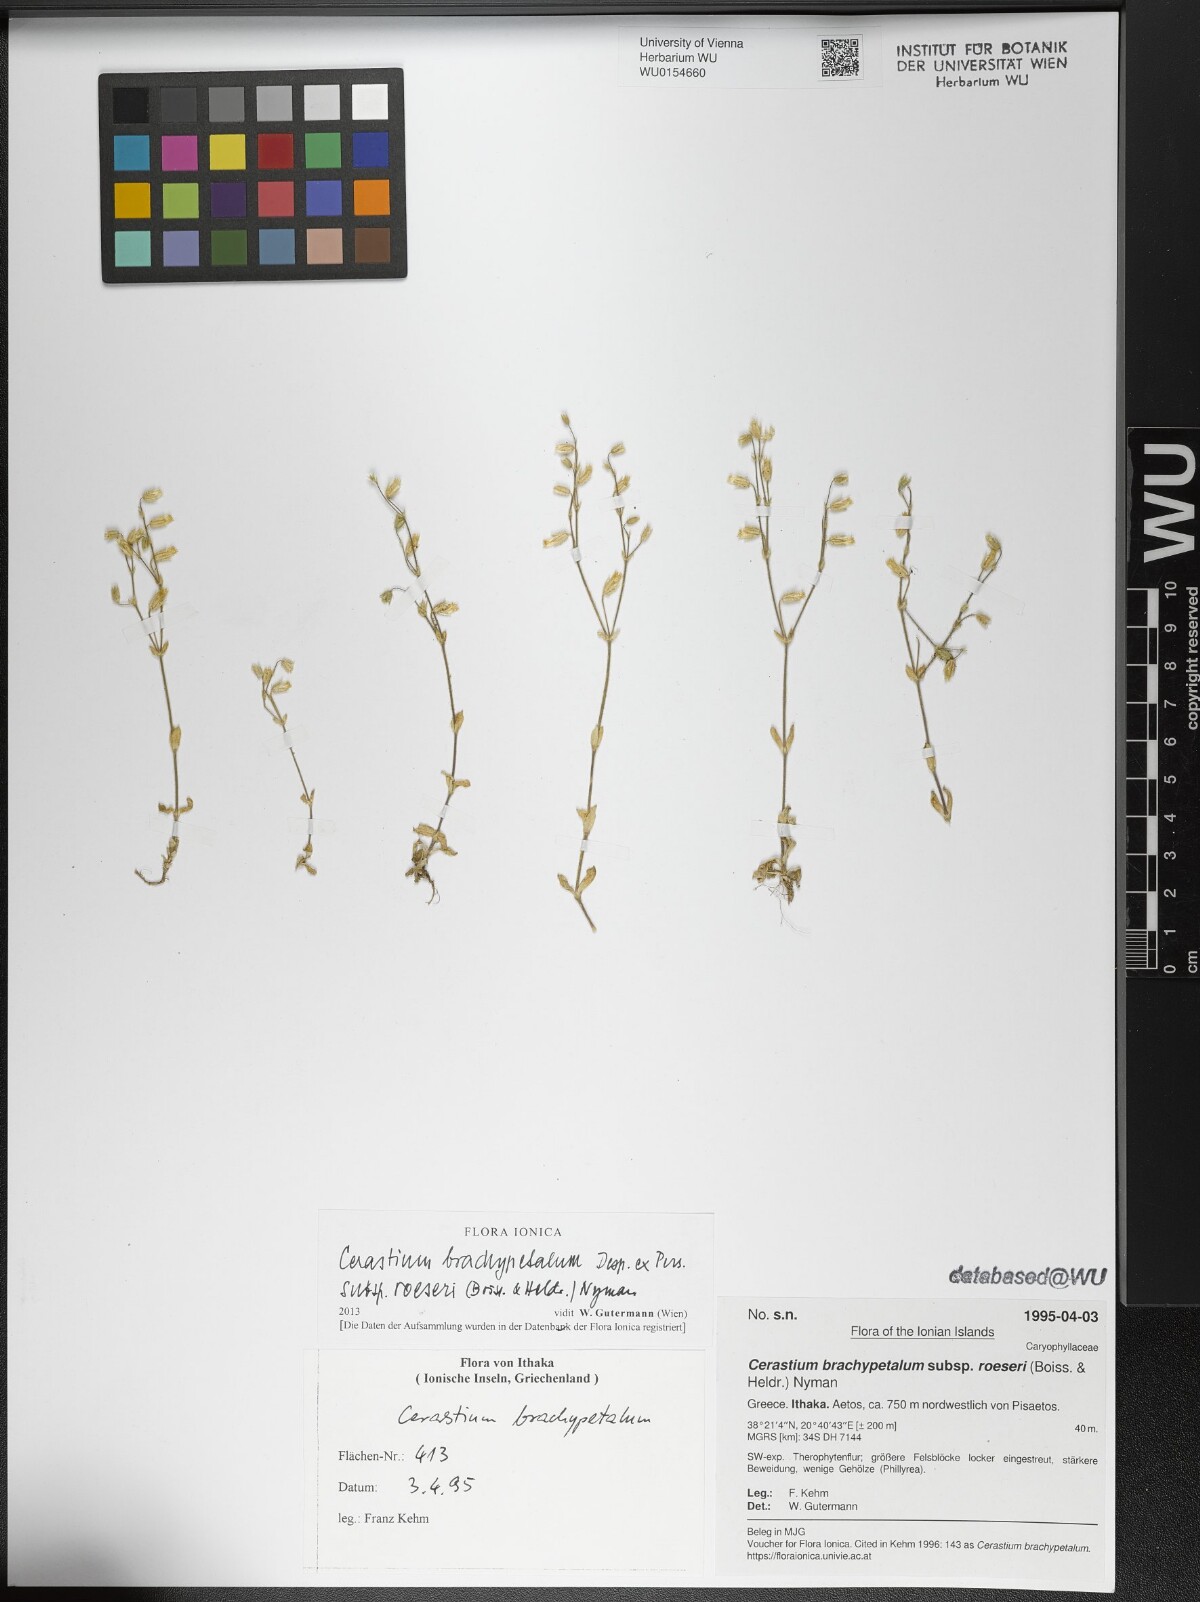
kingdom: Plantae
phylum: Tracheophyta
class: Magnoliopsida
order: Caryophyllales
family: Caryophyllaceae
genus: Cerastium
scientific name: Cerastium brachypetalum
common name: Grey mouse-ear
